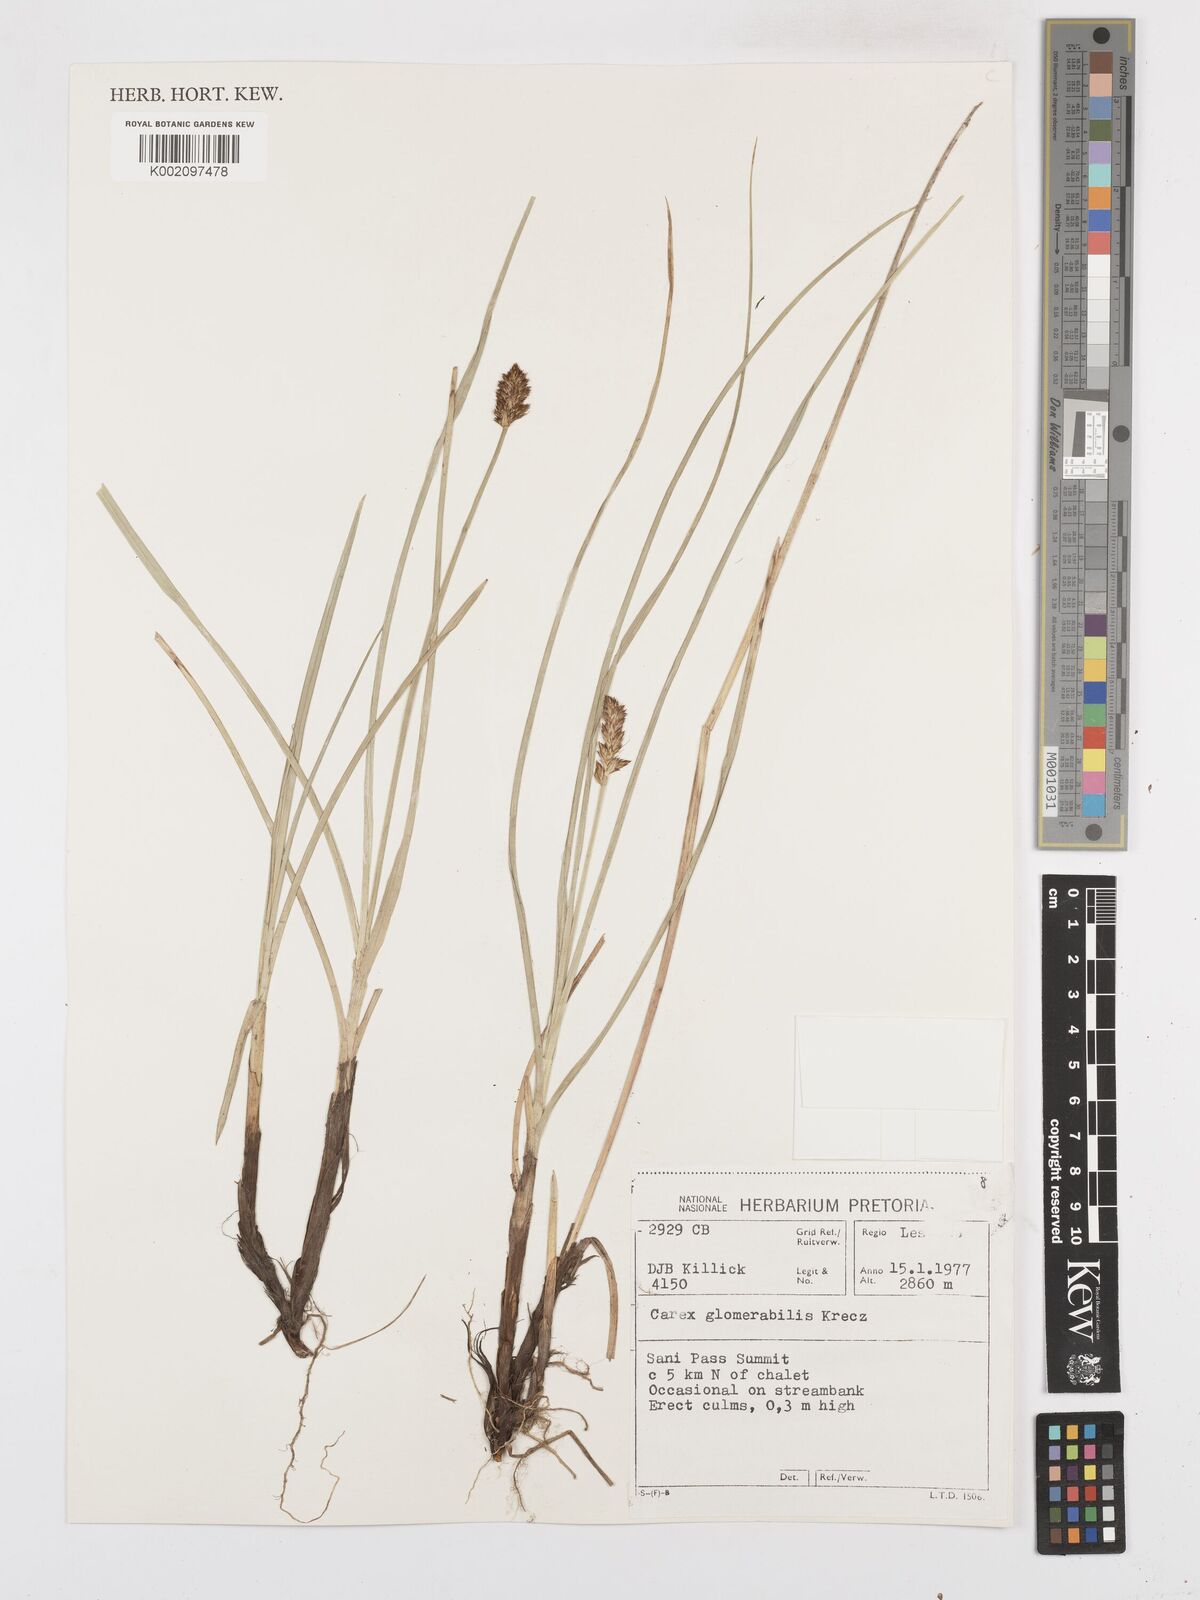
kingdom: Plantae
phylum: Tracheophyta
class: Liliopsida
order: Poales
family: Cyperaceae
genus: Carex
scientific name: Carex glomerata
